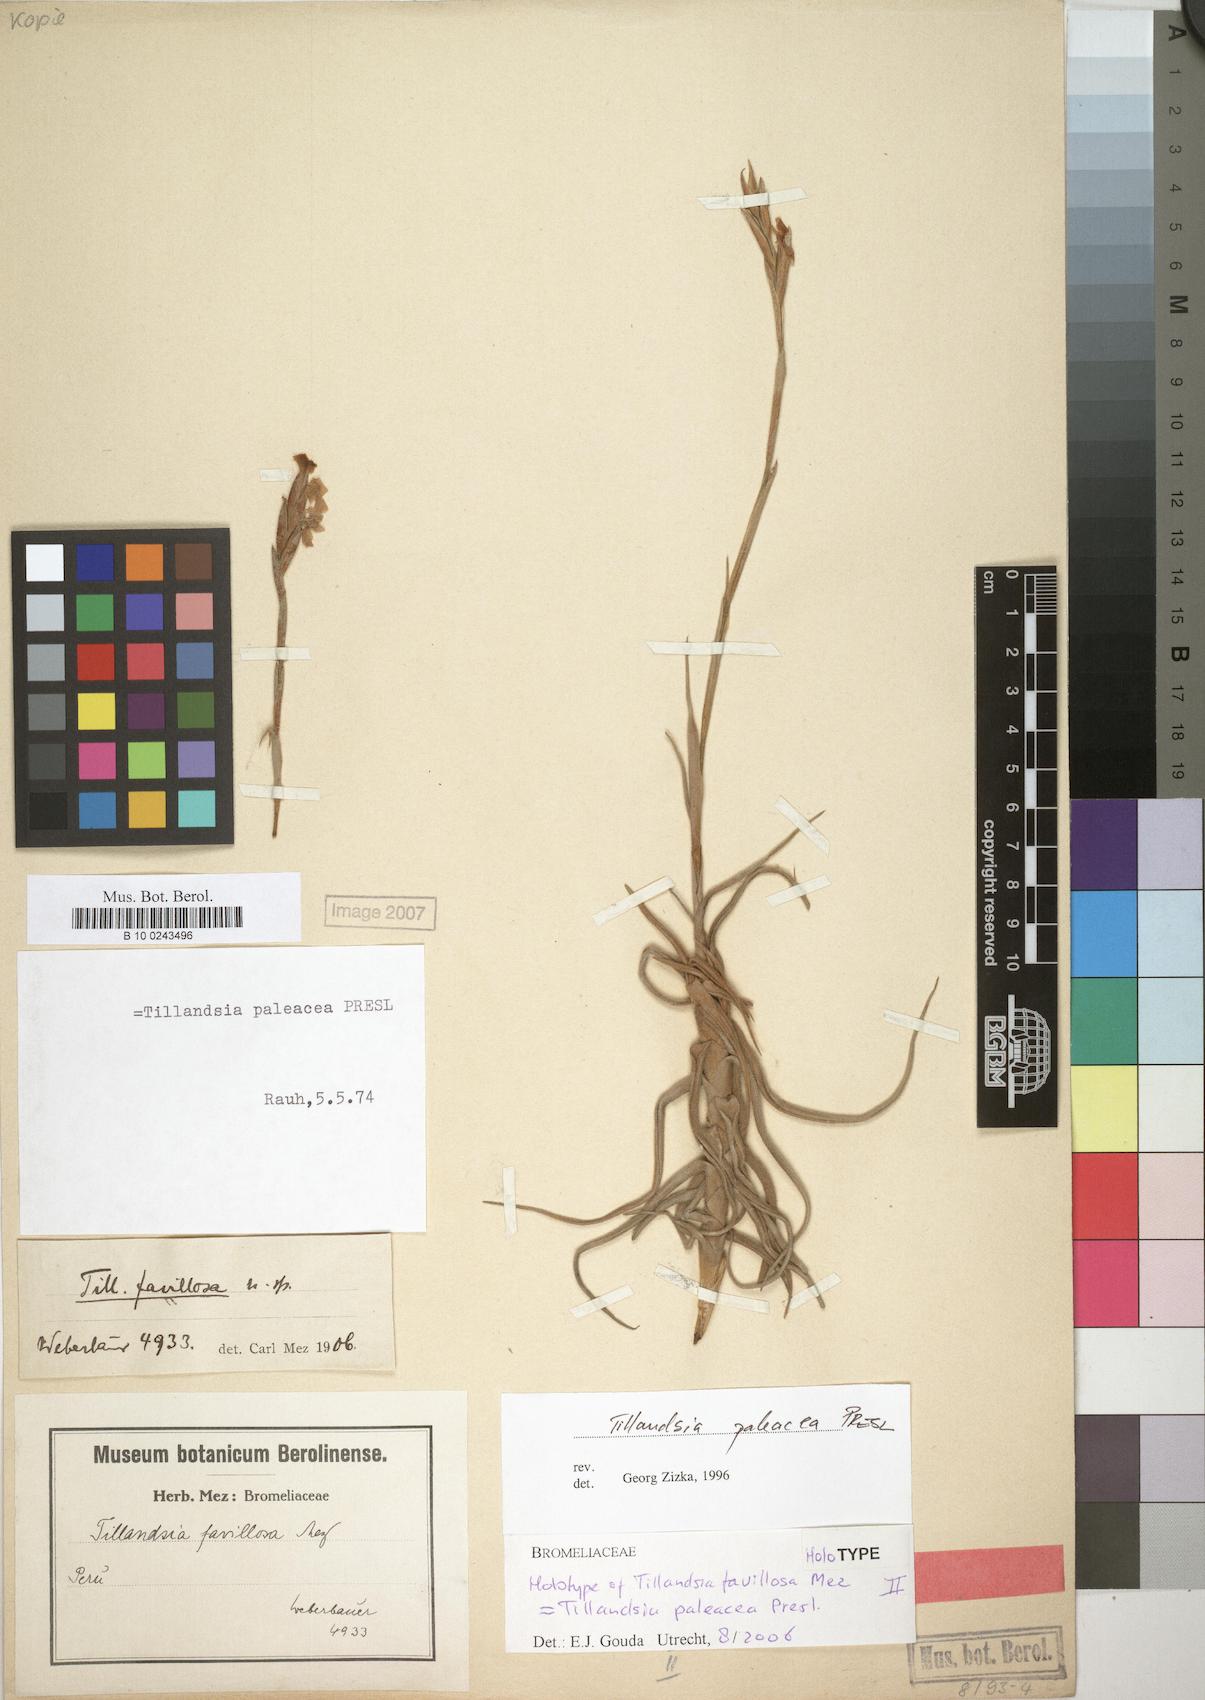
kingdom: Plantae
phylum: Tracheophyta
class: Liliopsida
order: Poales
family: Bromeliaceae
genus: Tillandsia
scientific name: Tillandsia paleacea
